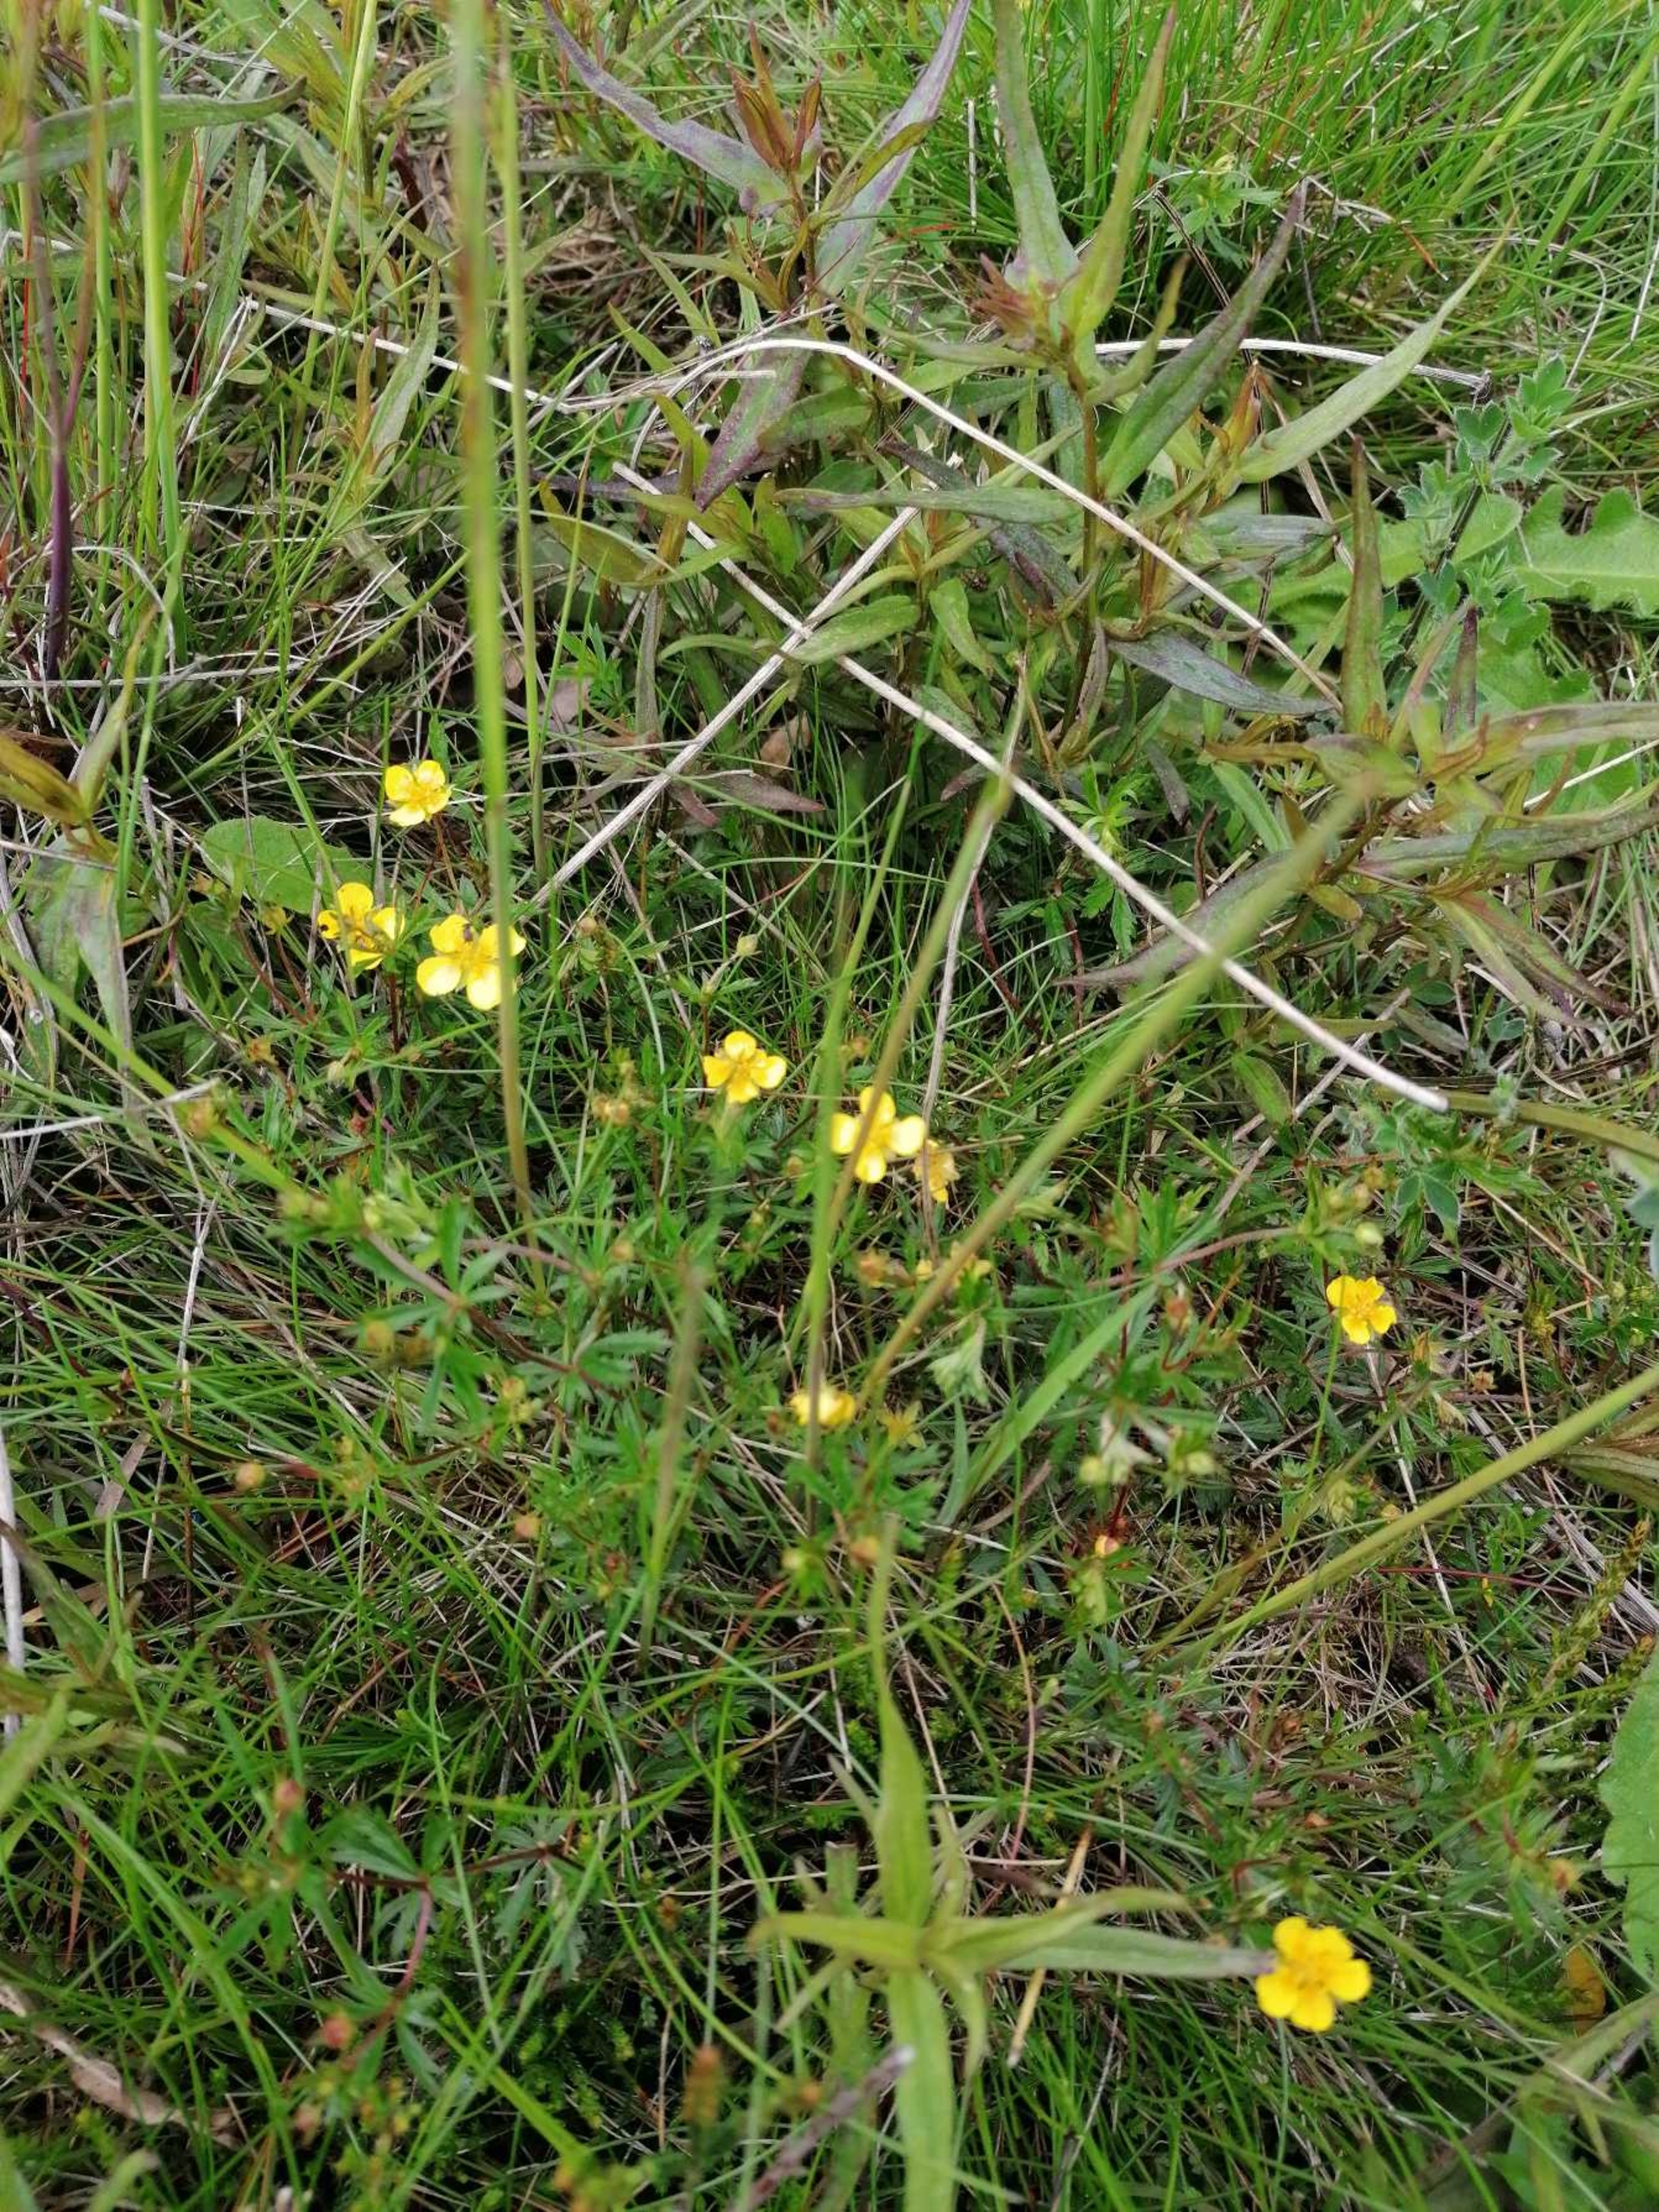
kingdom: Plantae
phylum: Tracheophyta
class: Magnoliopsida
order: Rosales
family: Rosaceae
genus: Potentilla
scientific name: Potentilla erecta
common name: Tormentil
